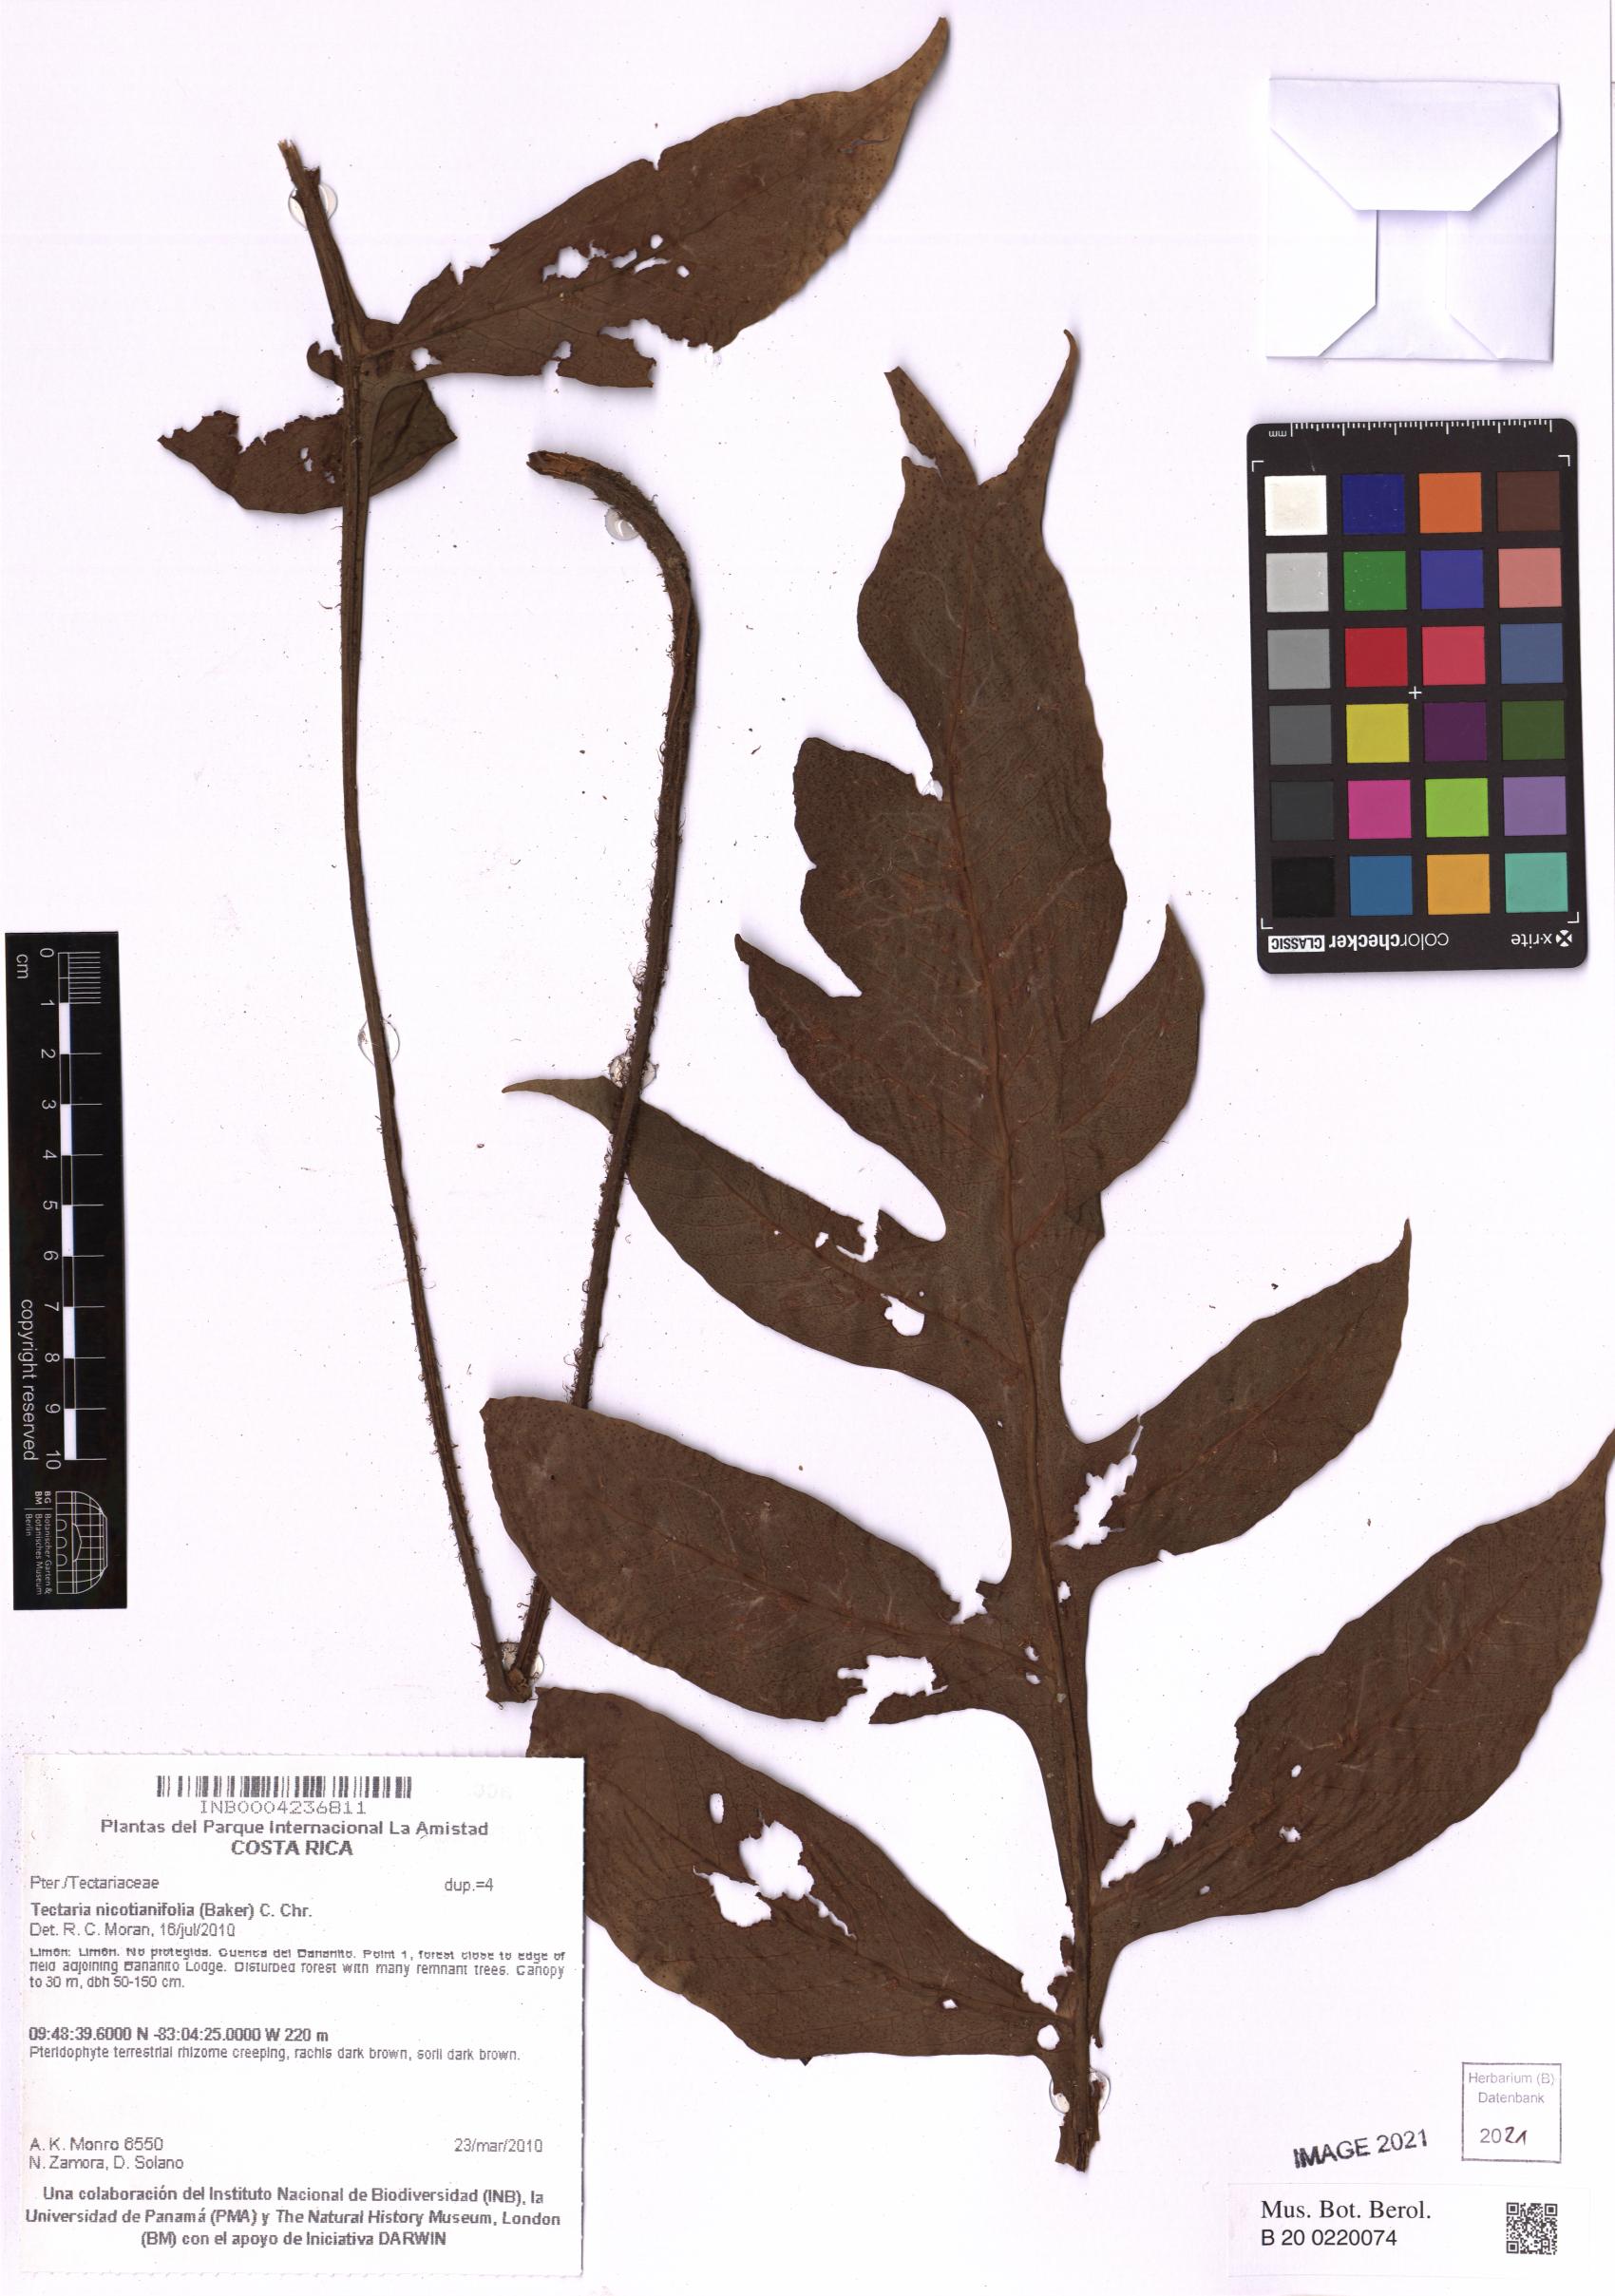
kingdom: Plantae
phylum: Tracheophyta
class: Polypodiopsida
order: Polypodiales
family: Tectariaceae
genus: Hypoderris
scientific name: Hypoderris nicotianifolia
